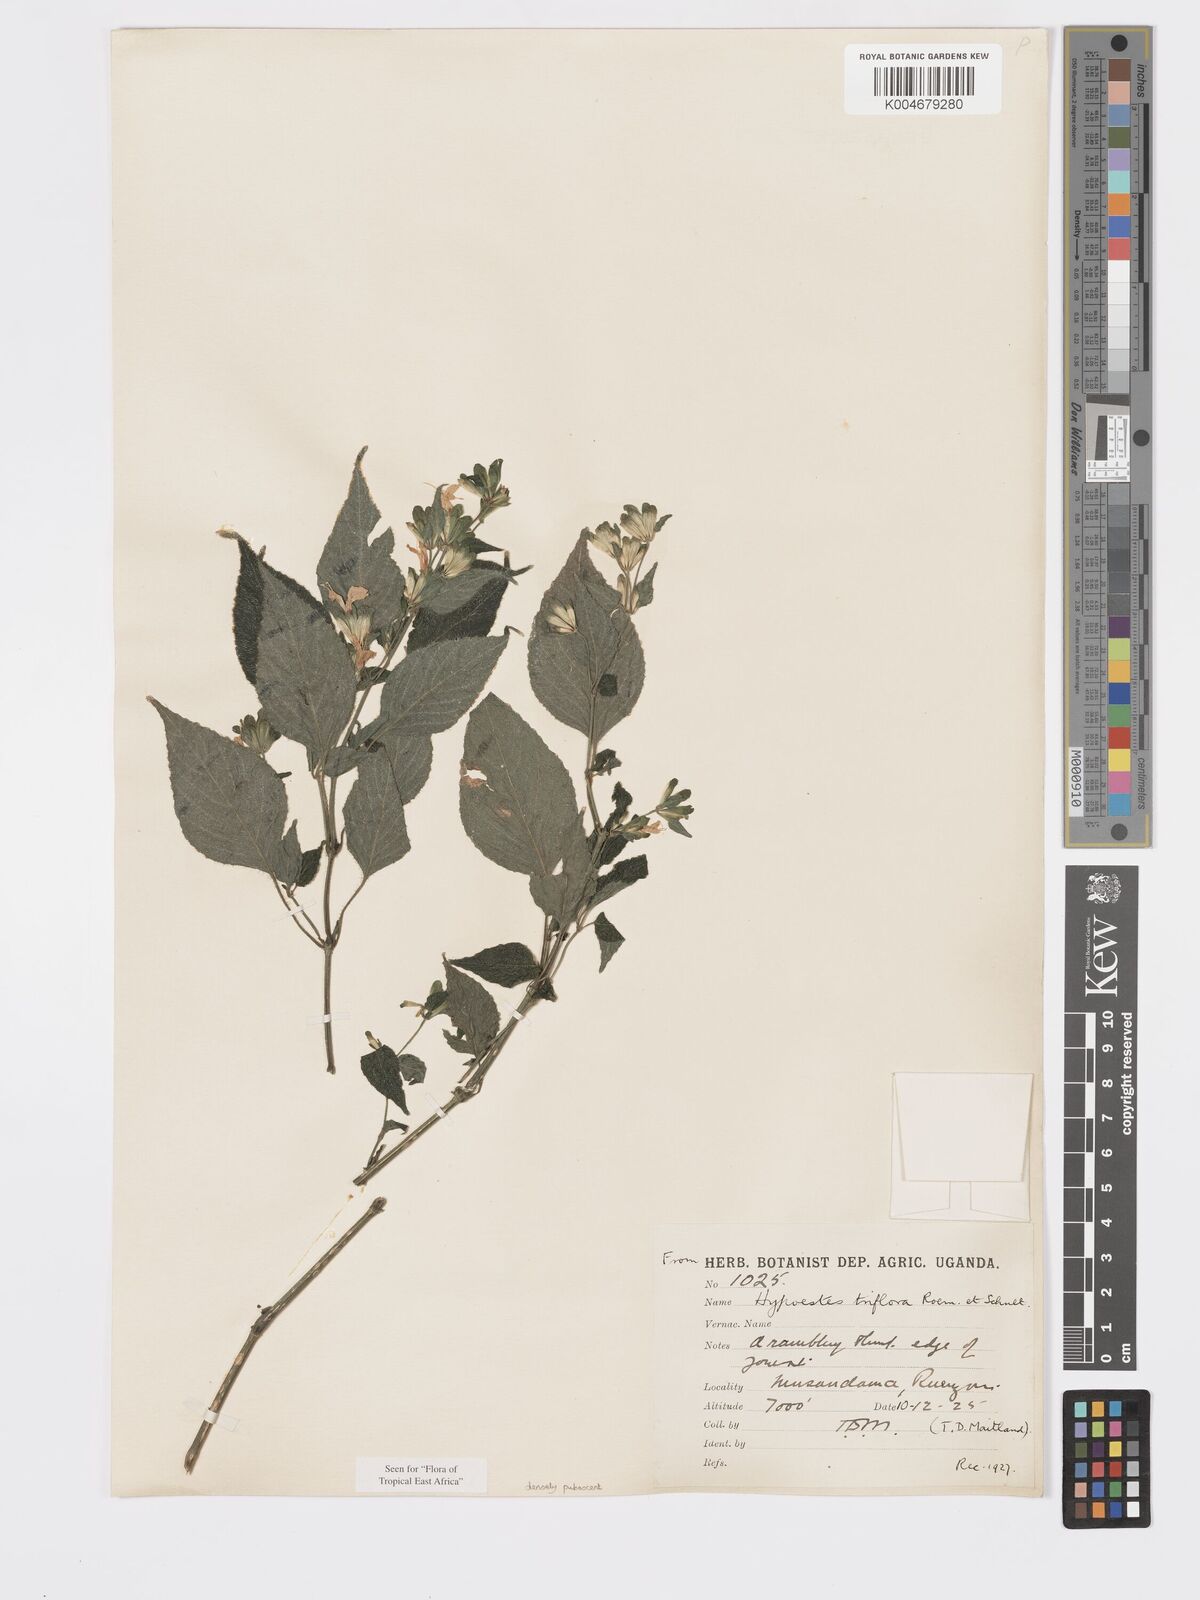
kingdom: Plantae
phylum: Tracheophyta
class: Magnoliopsida
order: Lamiales
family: Acanthaceae
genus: Hypoestes
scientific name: Hypoestes triflora
